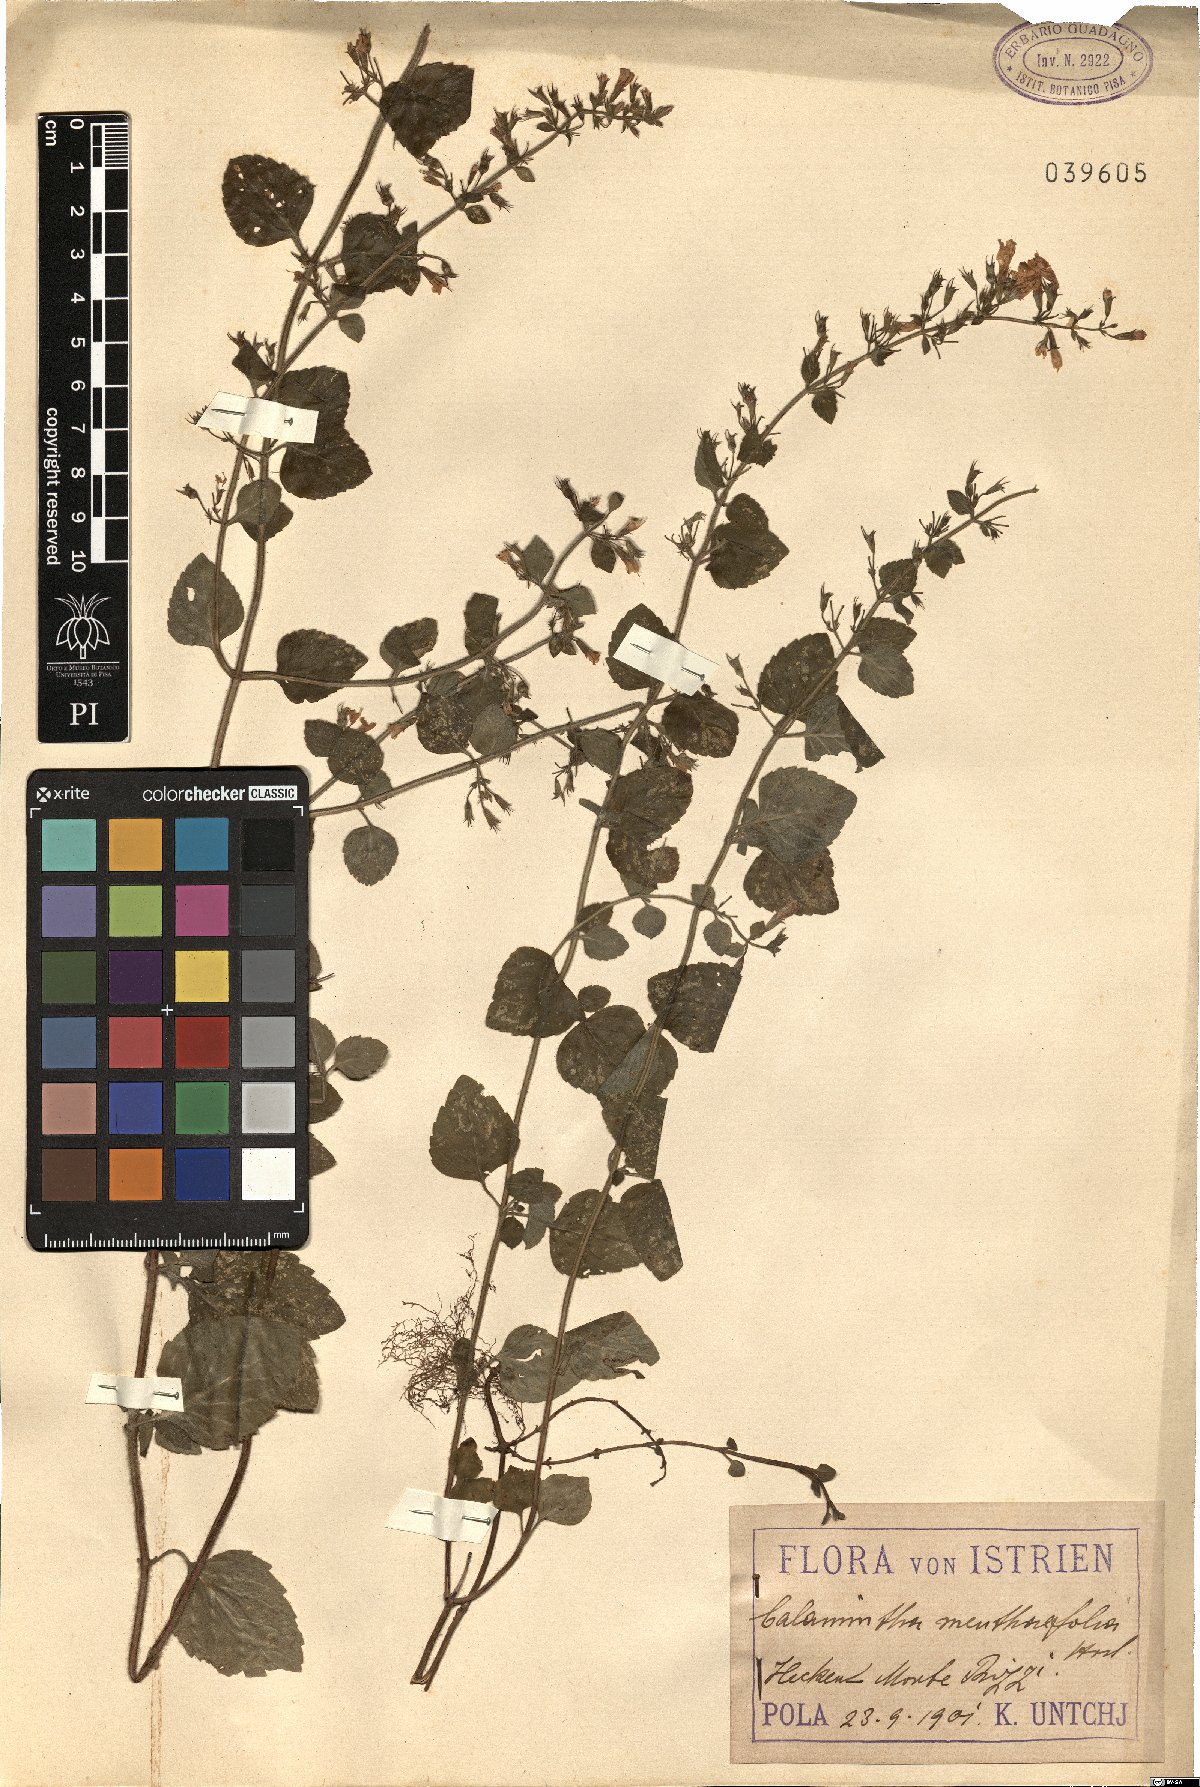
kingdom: Plantae
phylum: Tracheophyta
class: Magnoliopsida
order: Lamiales
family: Lamiaceae
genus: Clinopodium
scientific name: Clinopodium menthifolium
